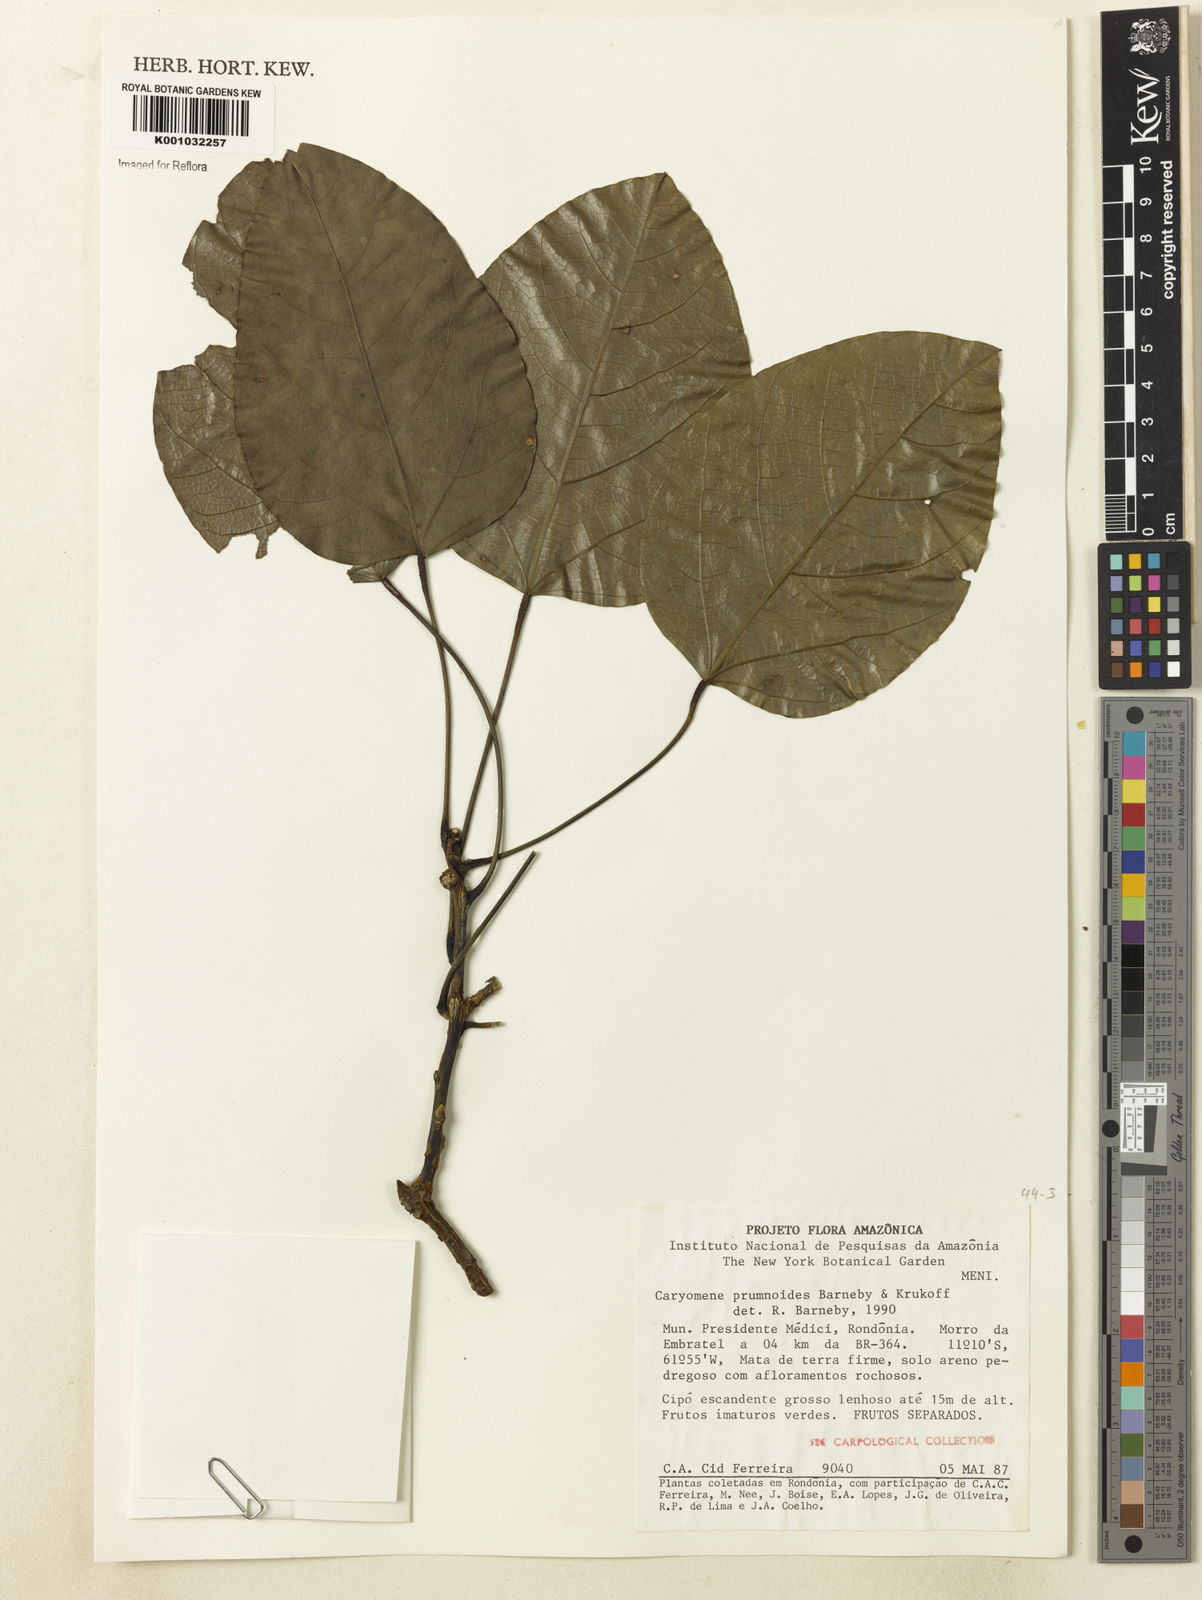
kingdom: Plantae
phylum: Tracheophyta
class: Magnoliopsida
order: Ranunculales
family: Menispermaceae
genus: Caryomene
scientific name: Caryomene prumnoides
